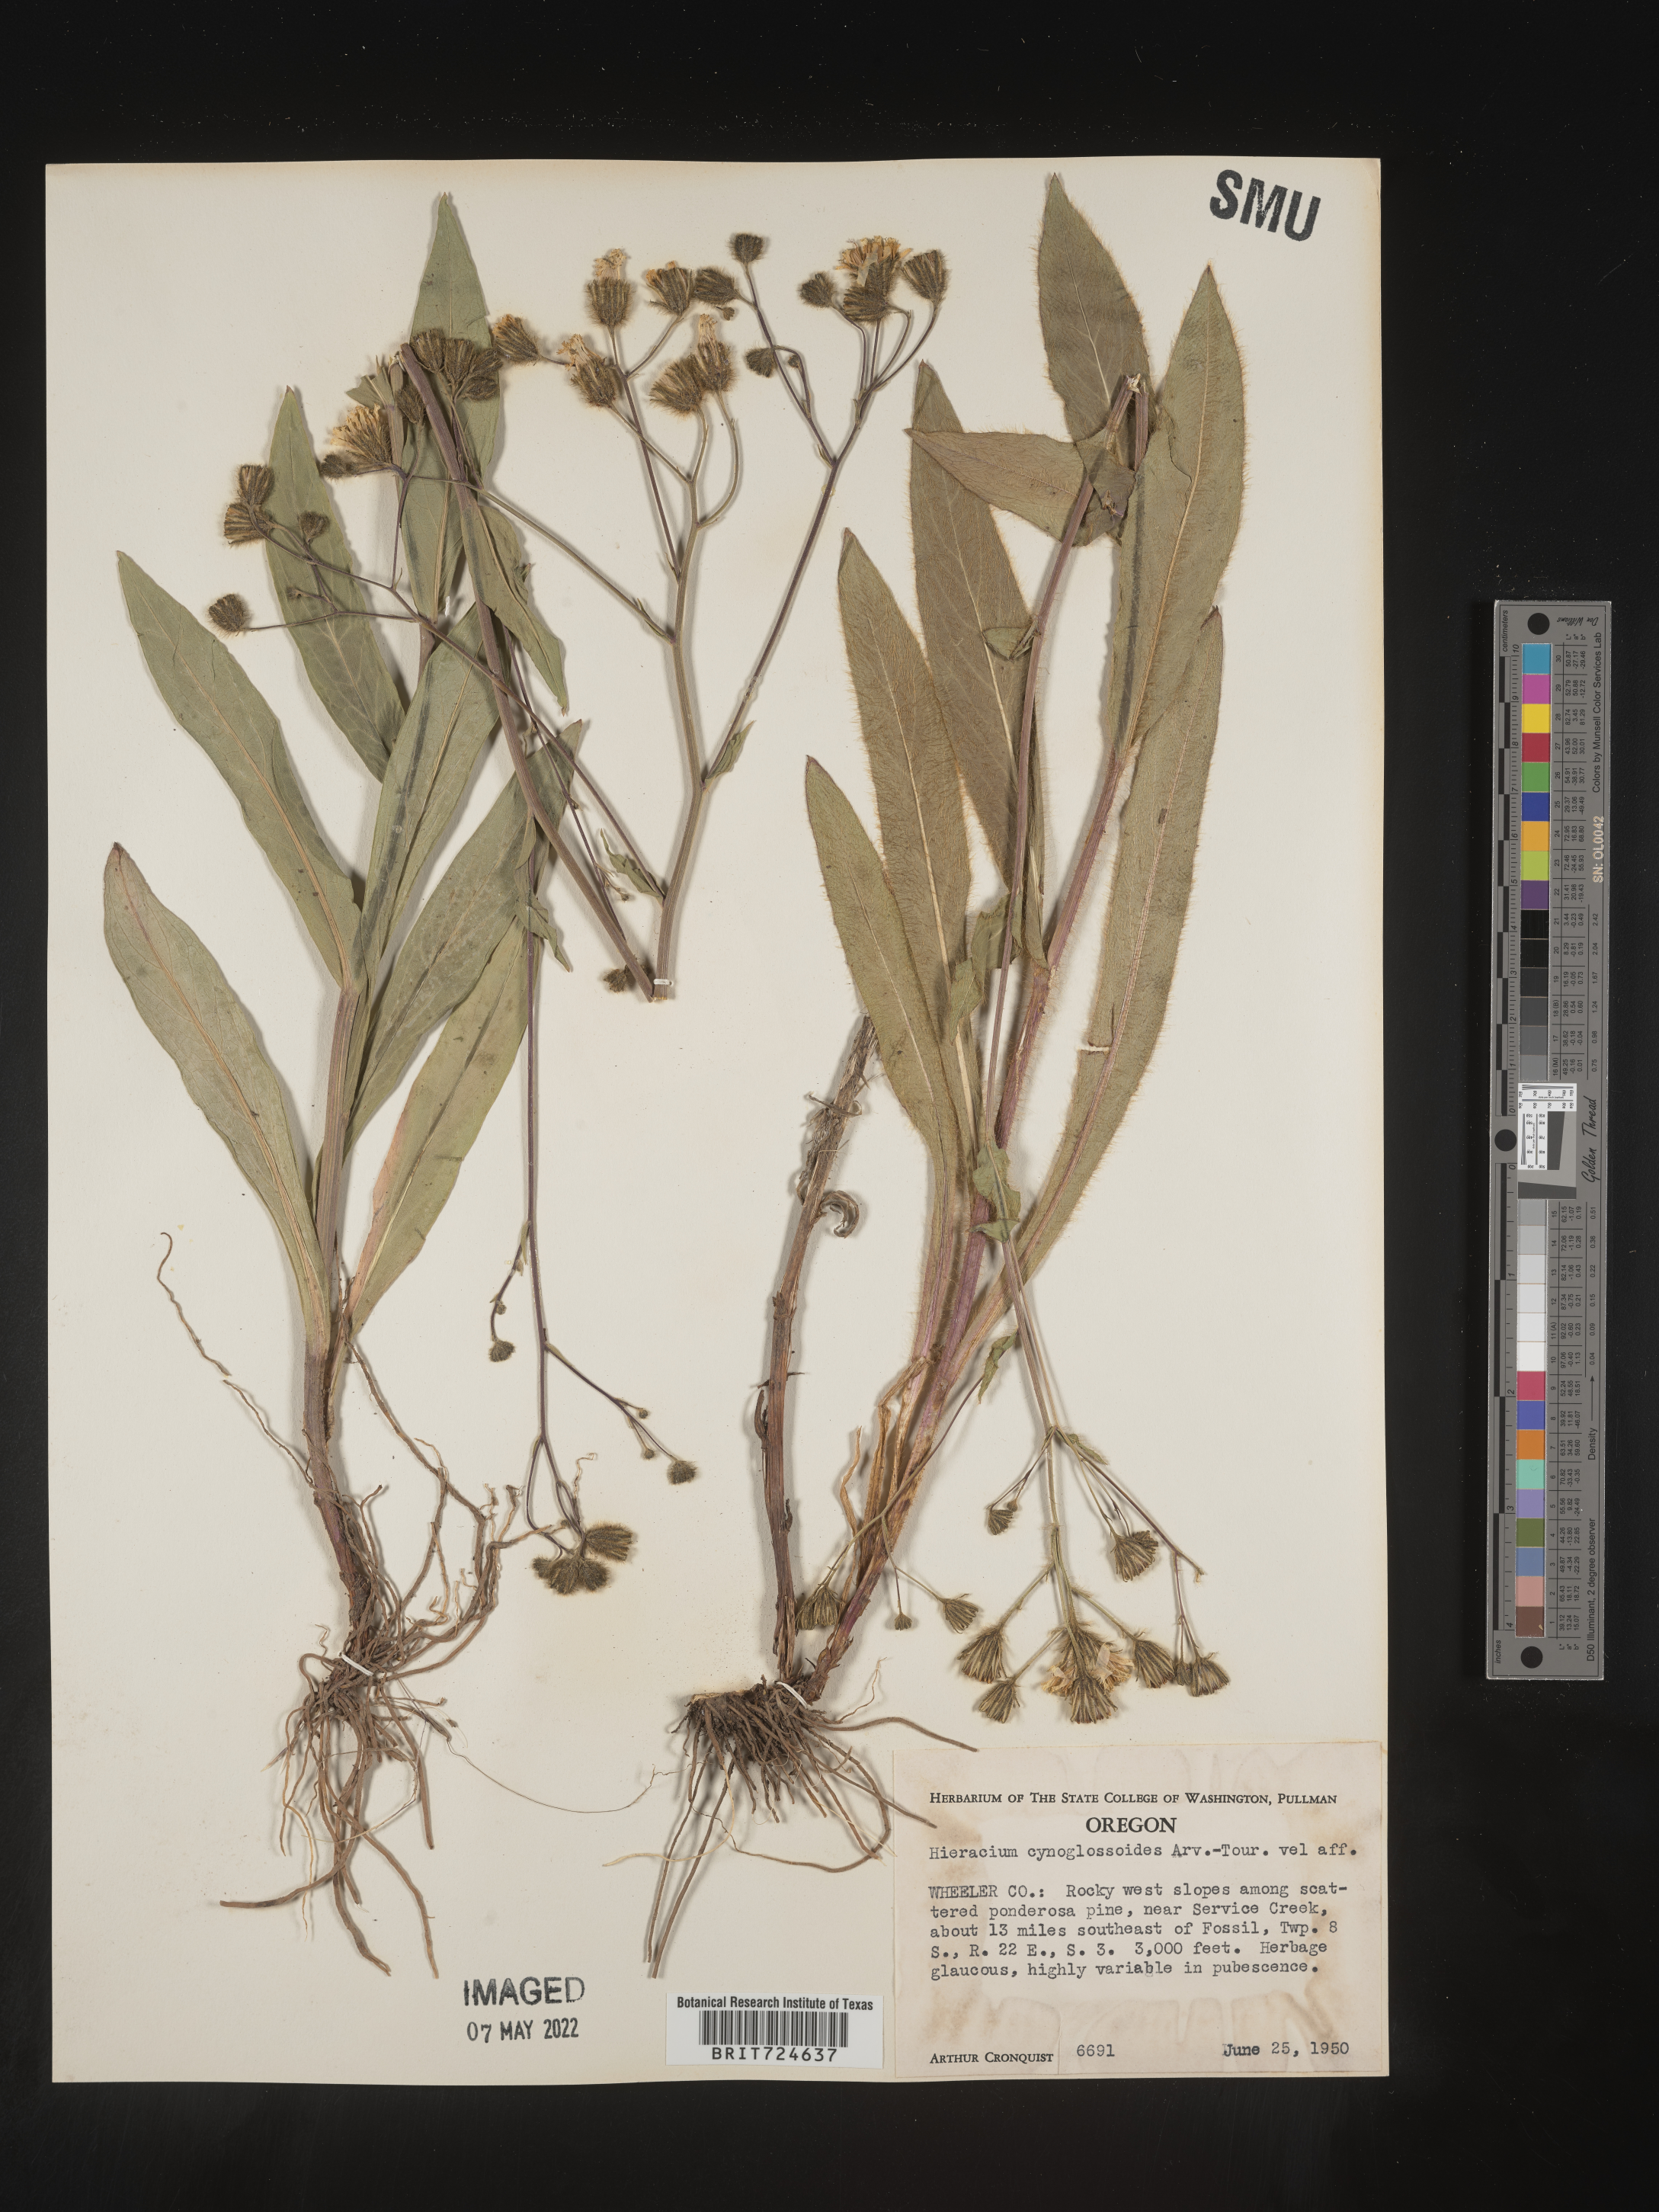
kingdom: Plantae
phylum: Tracheophyta
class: Magnoliopsida
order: Asterales
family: Asteraceae
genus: Hieracium
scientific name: Hieracium scouleri
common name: Hound's-tongue hawkweed
